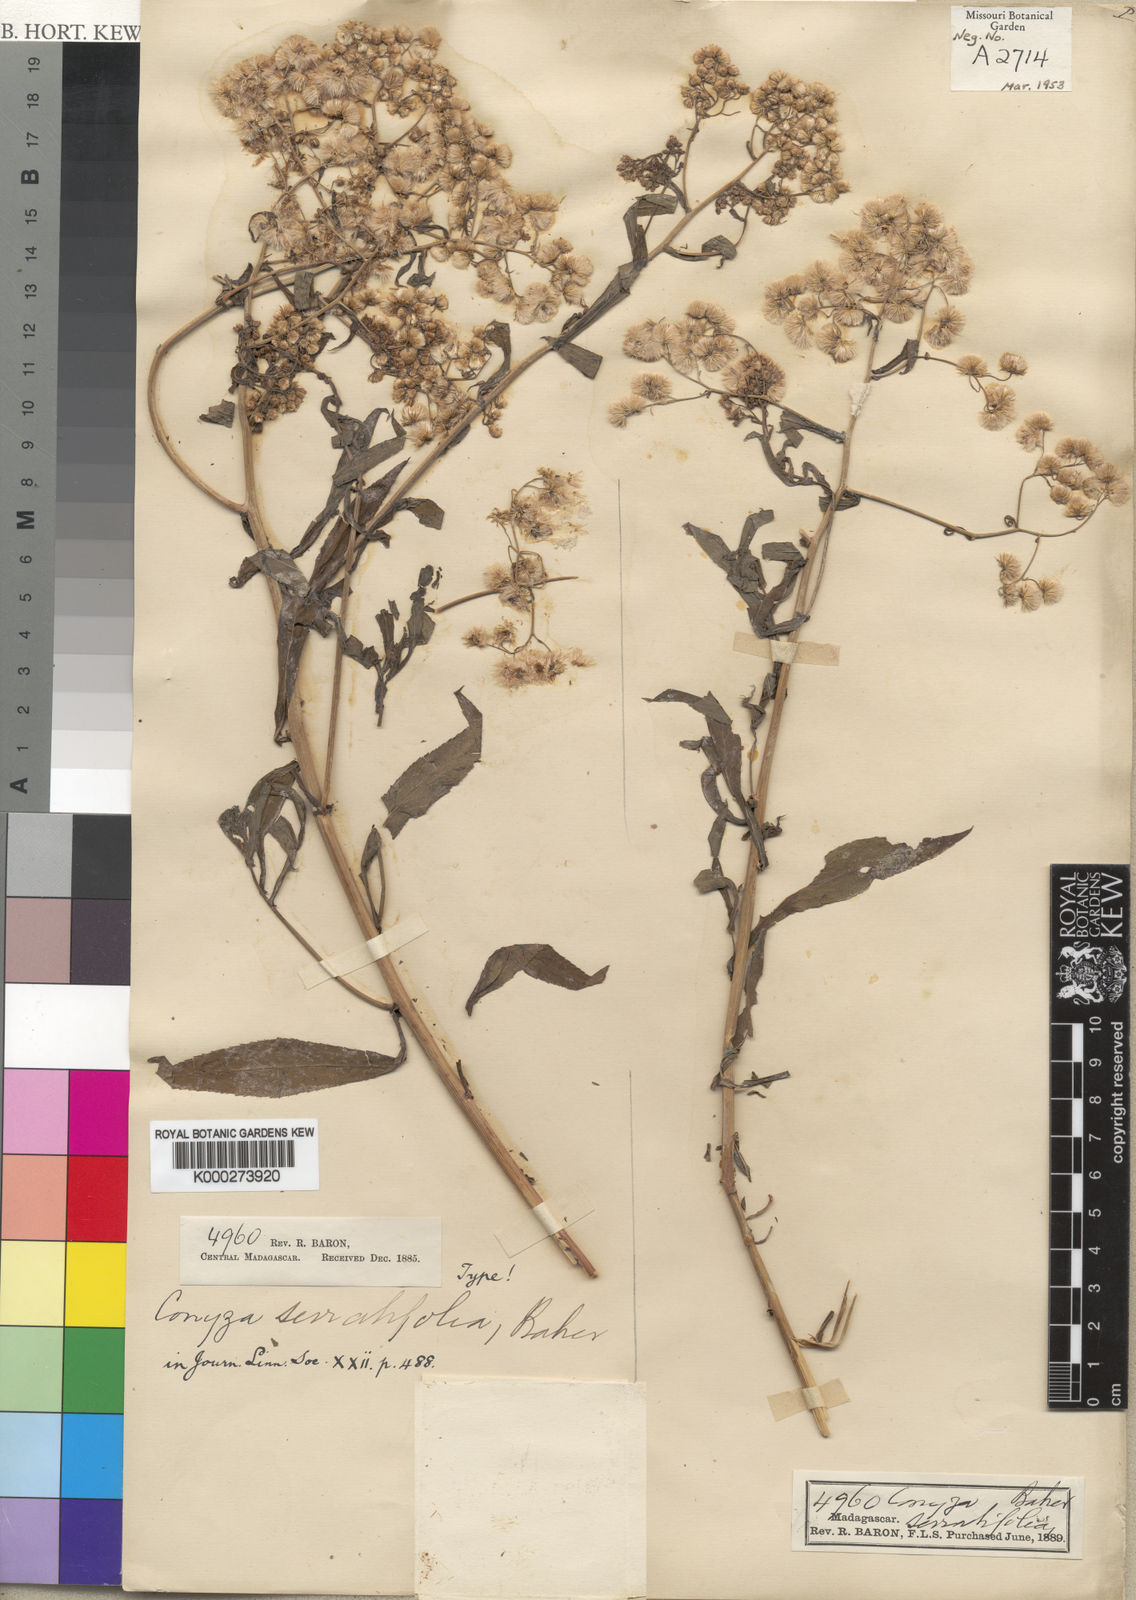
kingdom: Plantae
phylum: Tracheophyta
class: Magnoliopsida
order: Asterales
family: Asteraceae
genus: Nidorella
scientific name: Nidorella attenuata
